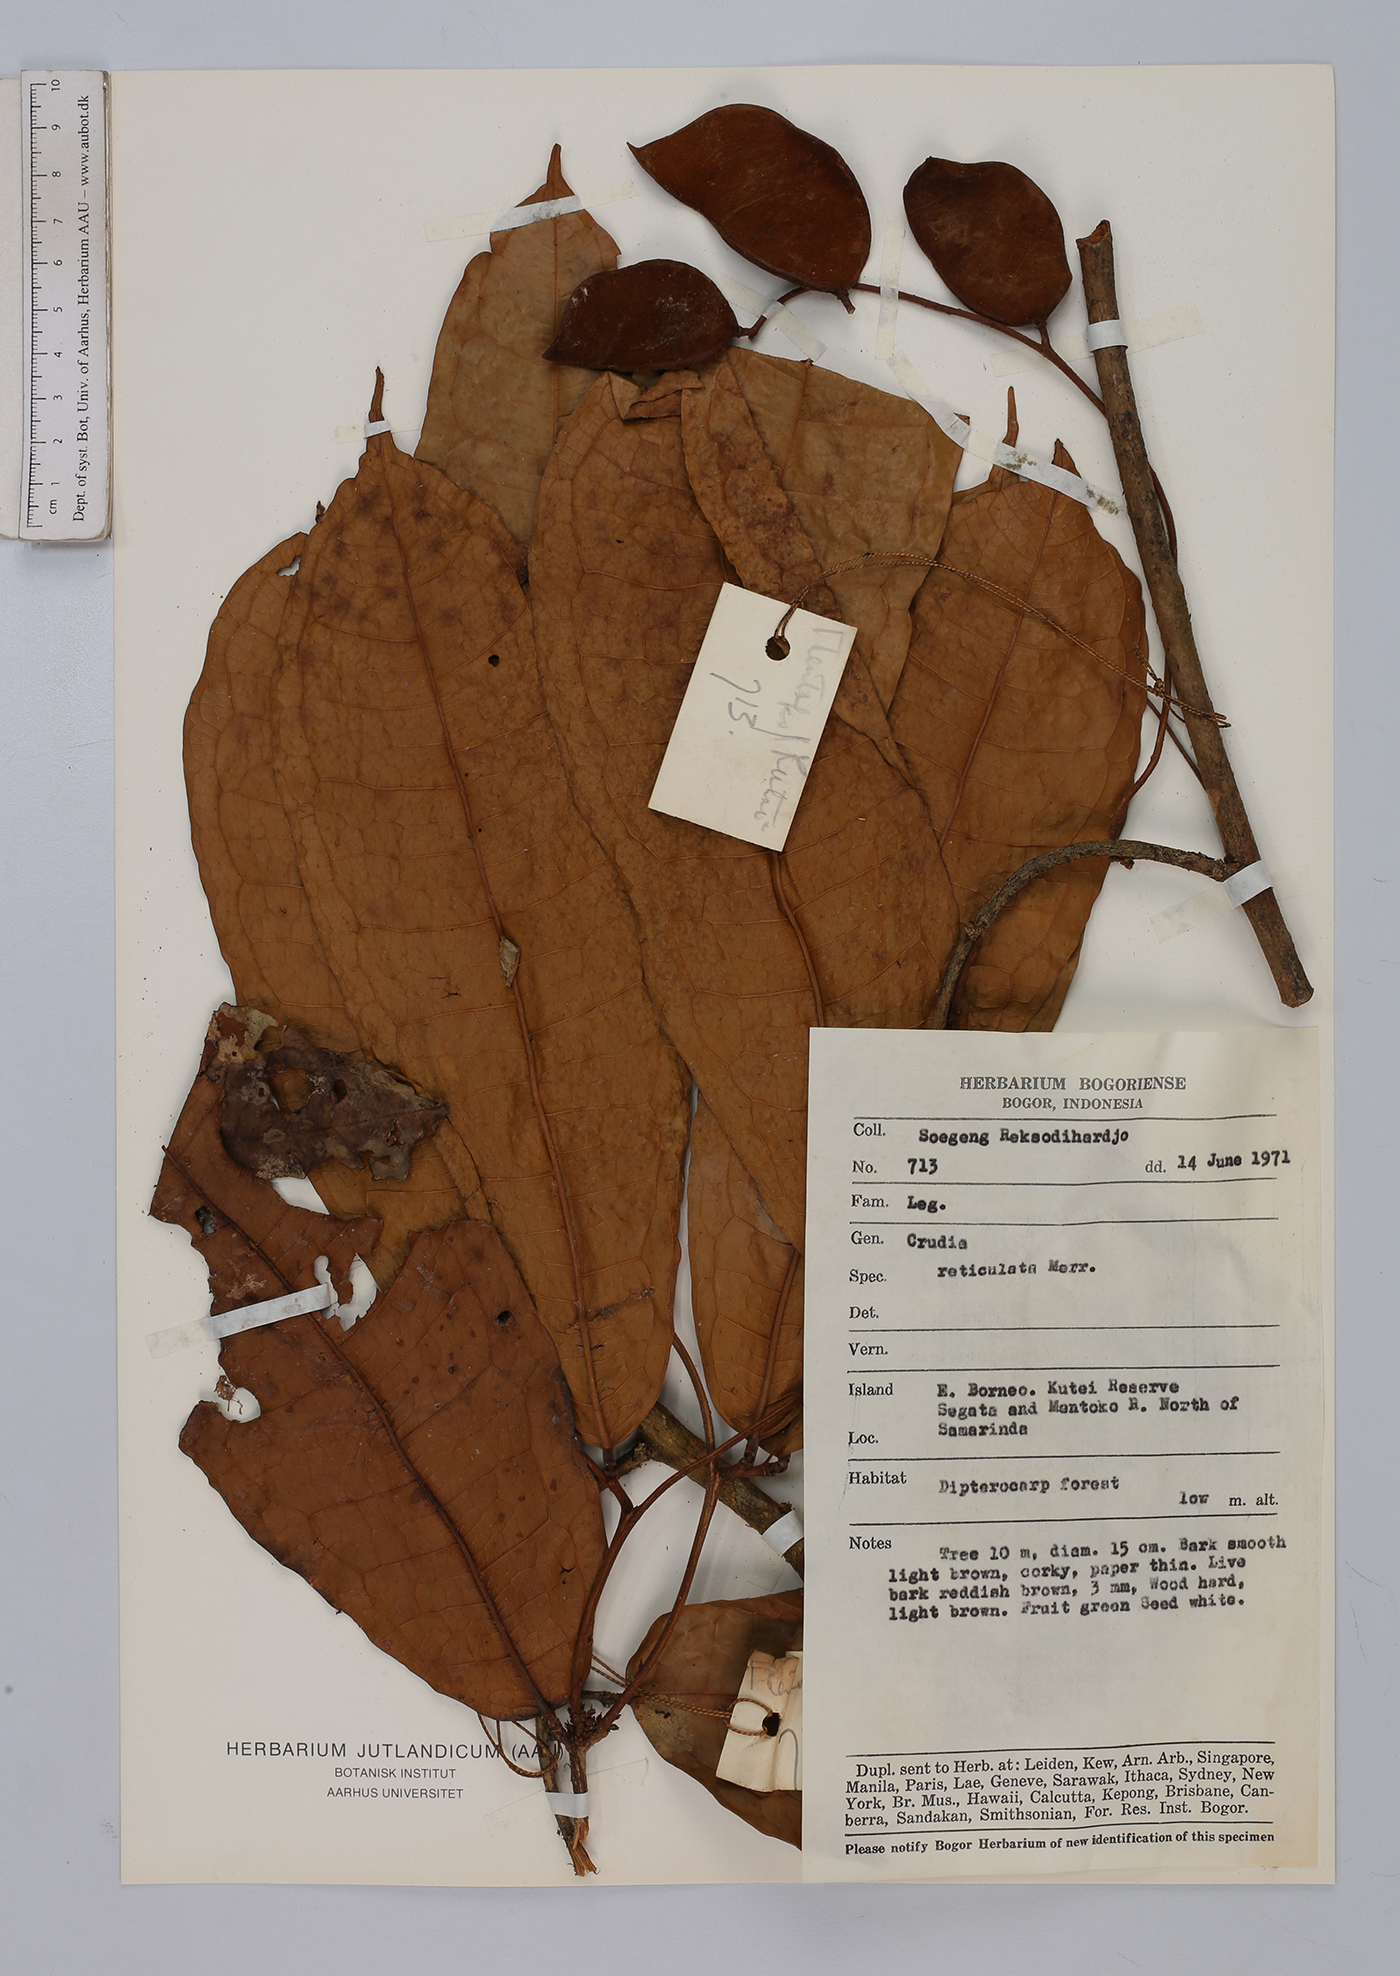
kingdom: Plantae
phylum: Tracheophyta
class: Magnoliopsida
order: Fabales
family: Fabaceae
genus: Crudia
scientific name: Crudia bantamensis
